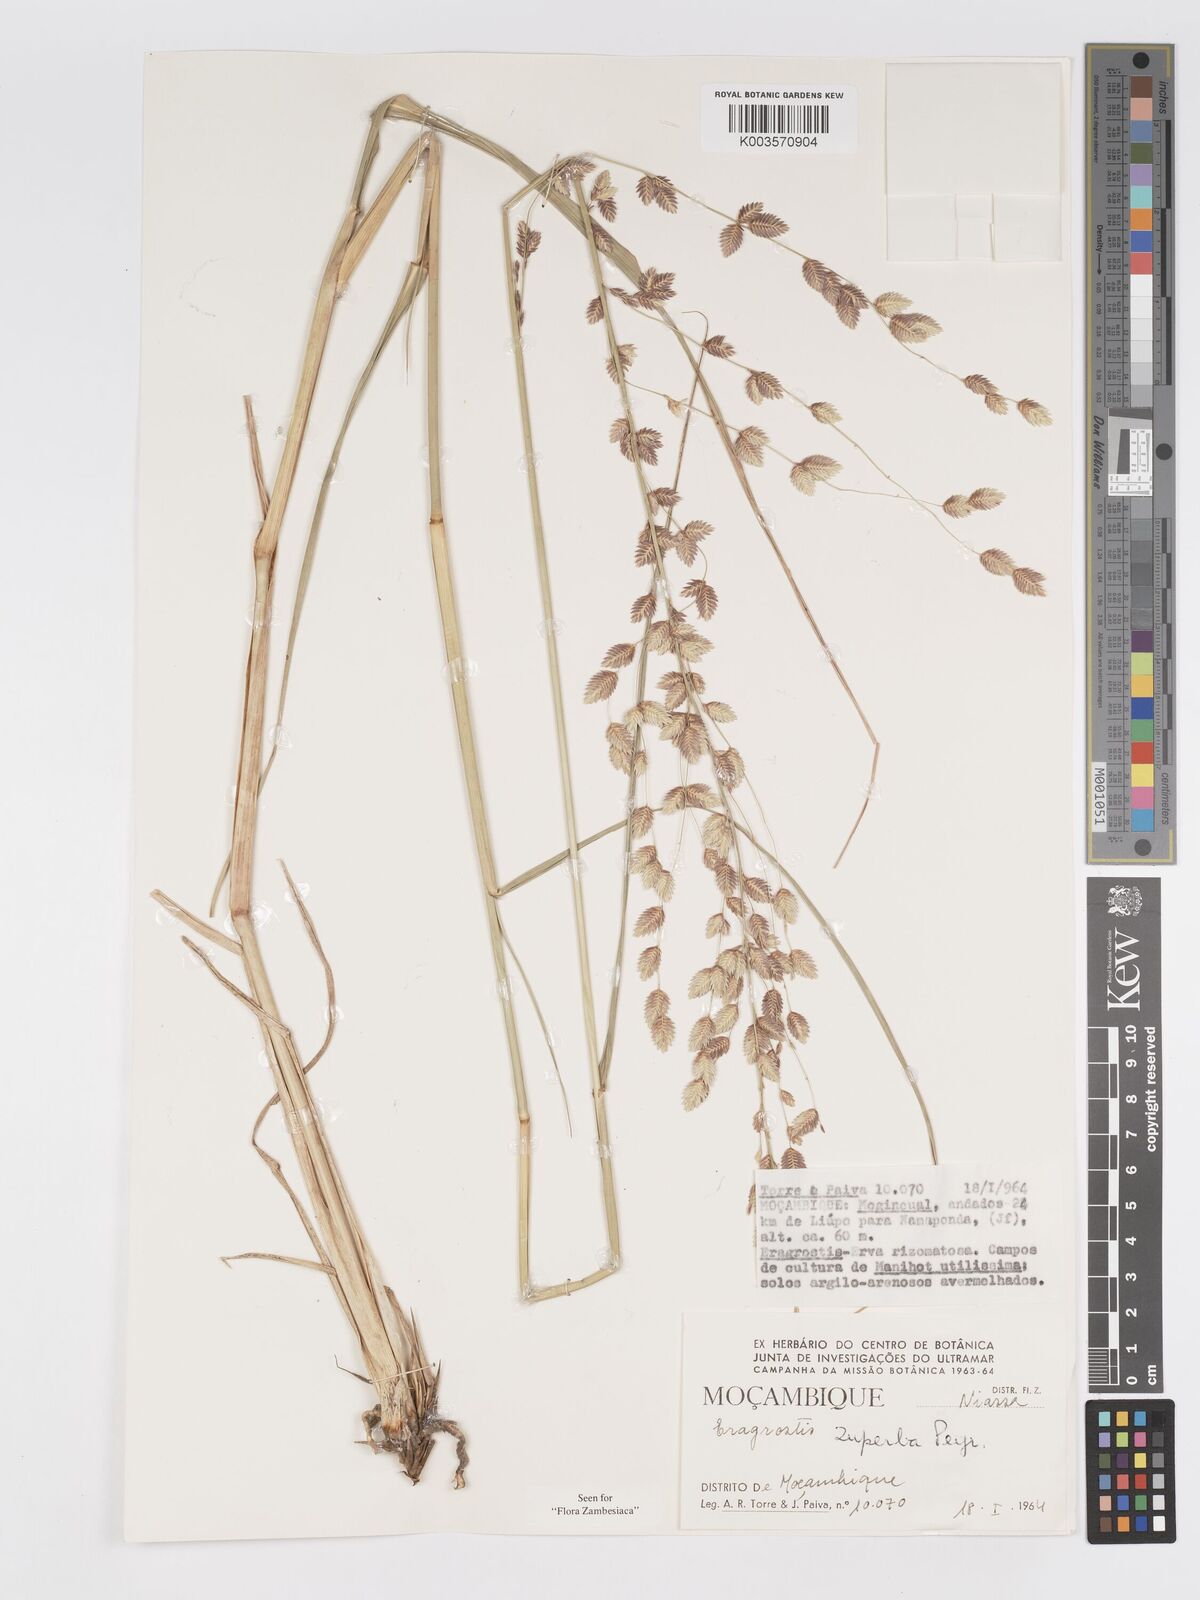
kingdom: Plantae
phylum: Tracheophyta
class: Liliopsida
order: Poales
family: Poaceae
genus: Eragrostis
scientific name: Eragrostis superba
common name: Wilman lovegrass
